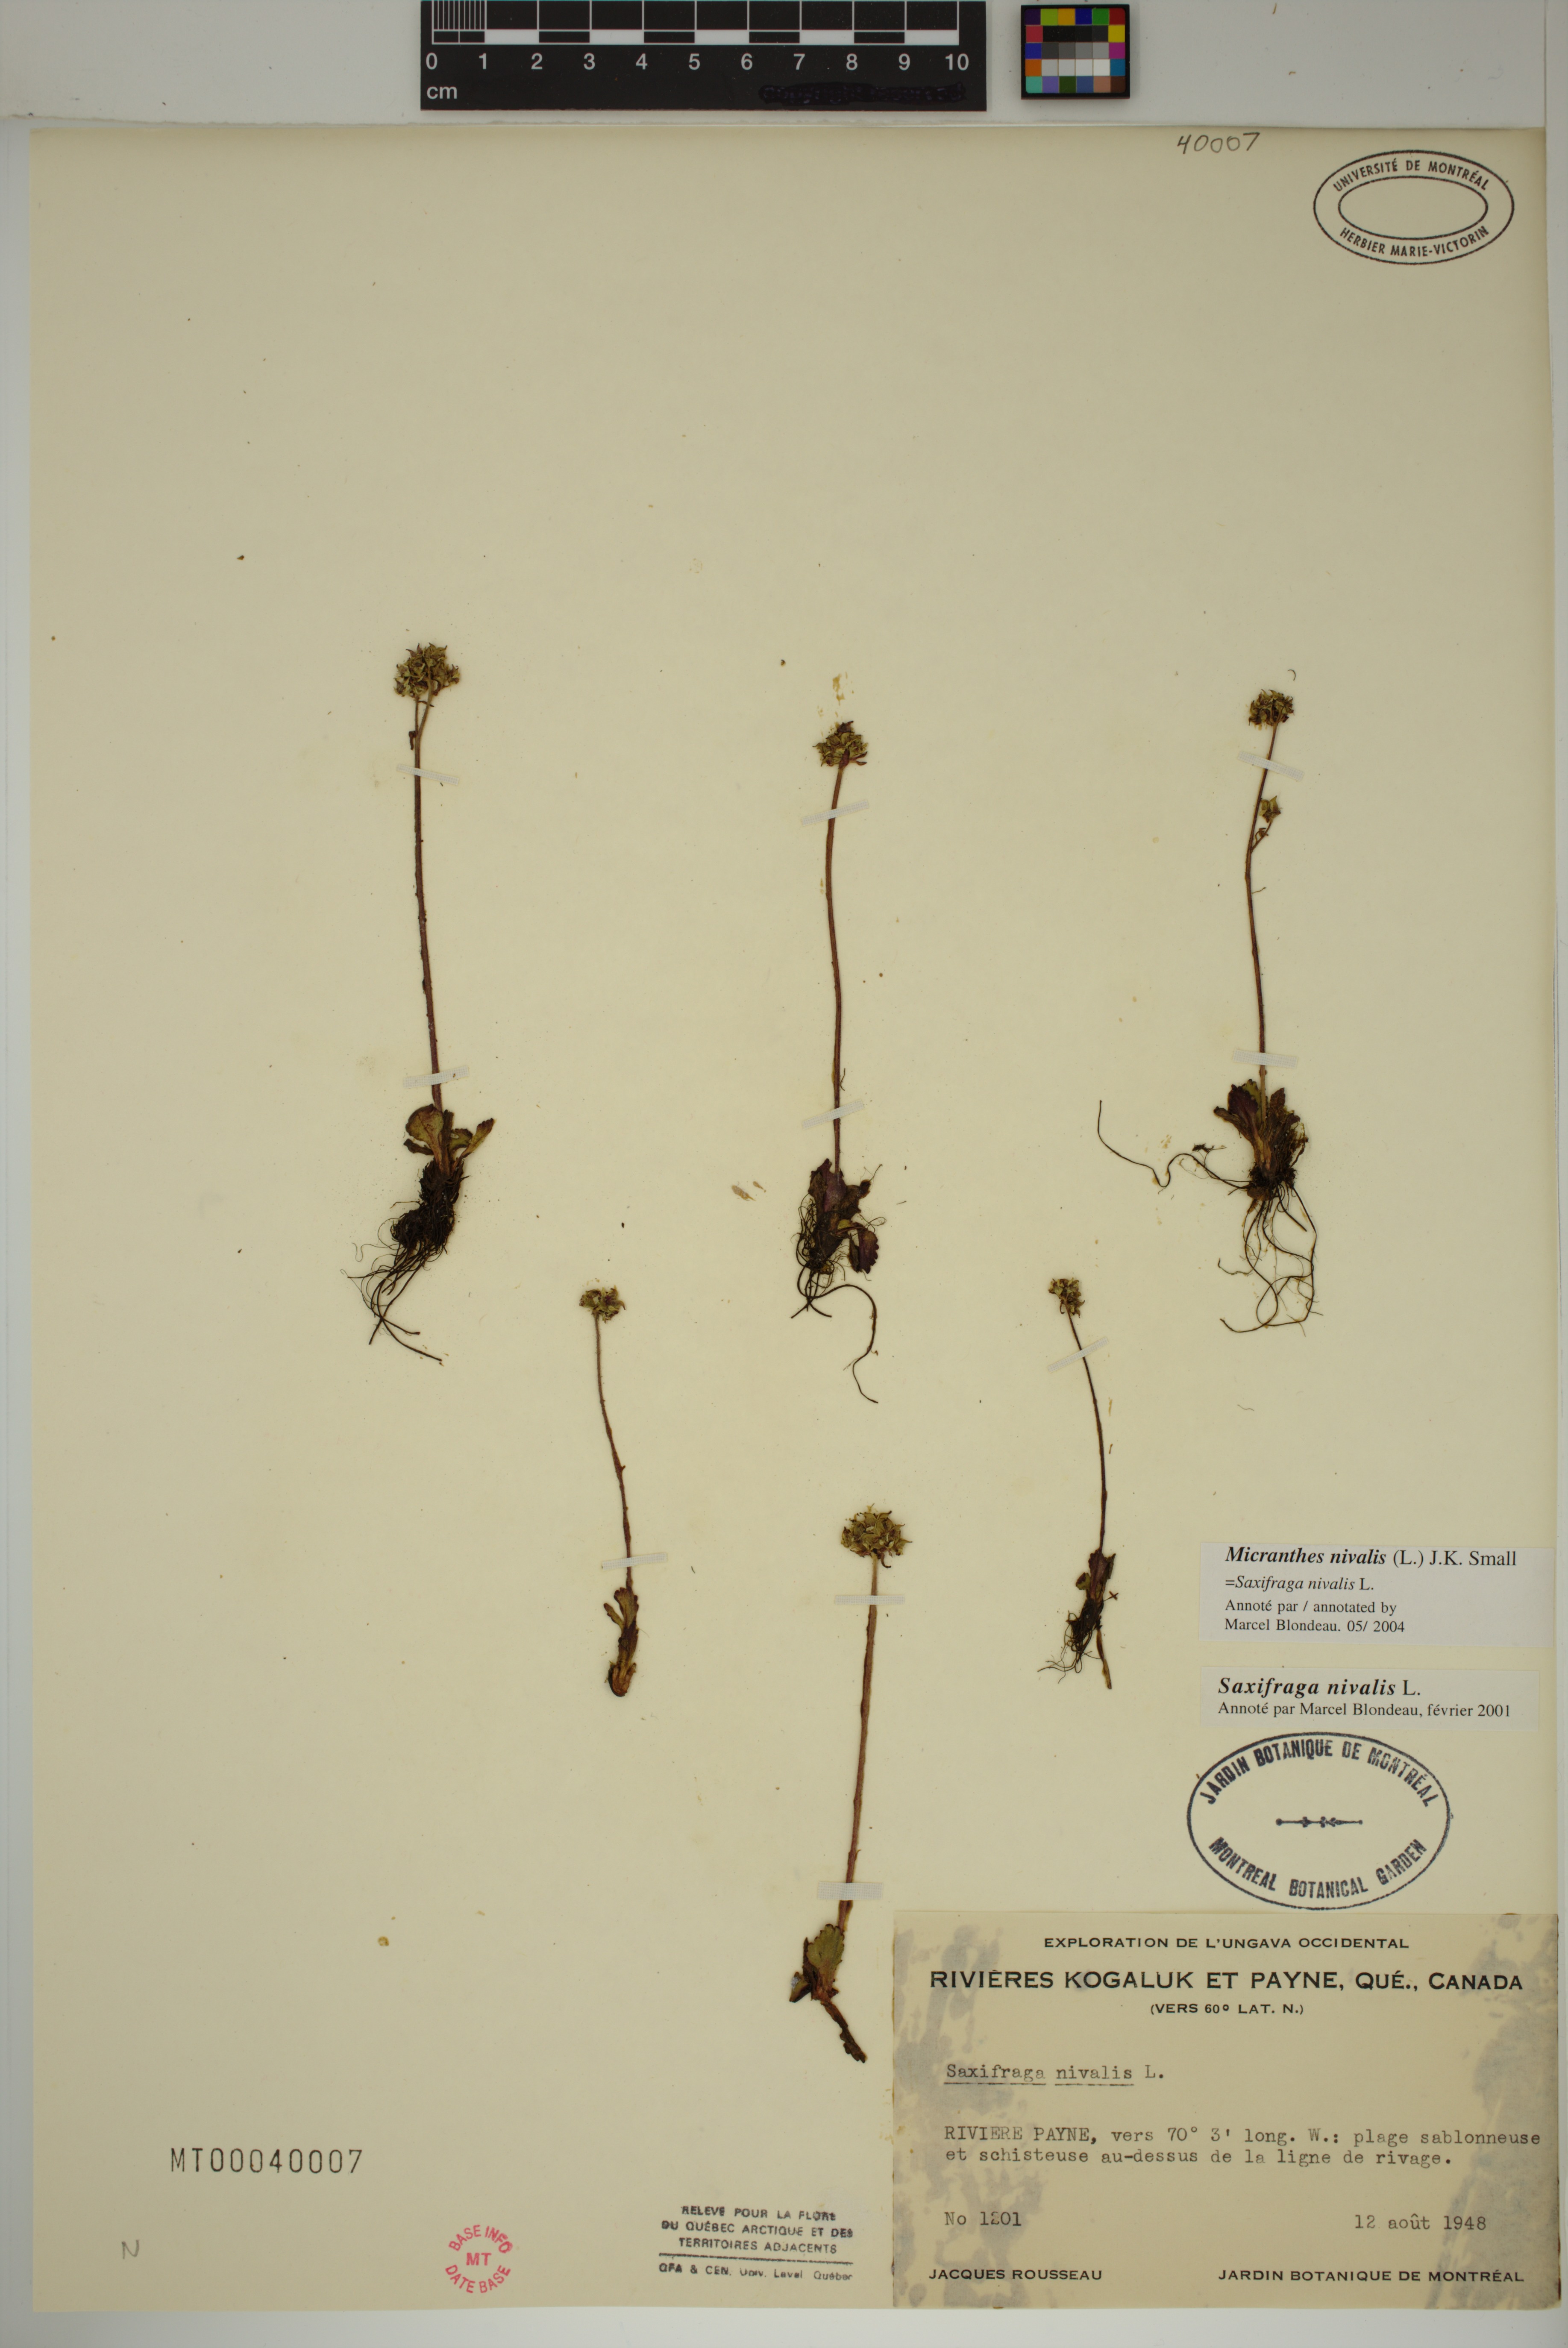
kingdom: Plantae
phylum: Tracheophyta
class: Magnoliopsida
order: Saxifragales
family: Saxifragaceae
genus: Micranthes
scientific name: Micranthes nivalis
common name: Alpine saxifrage
